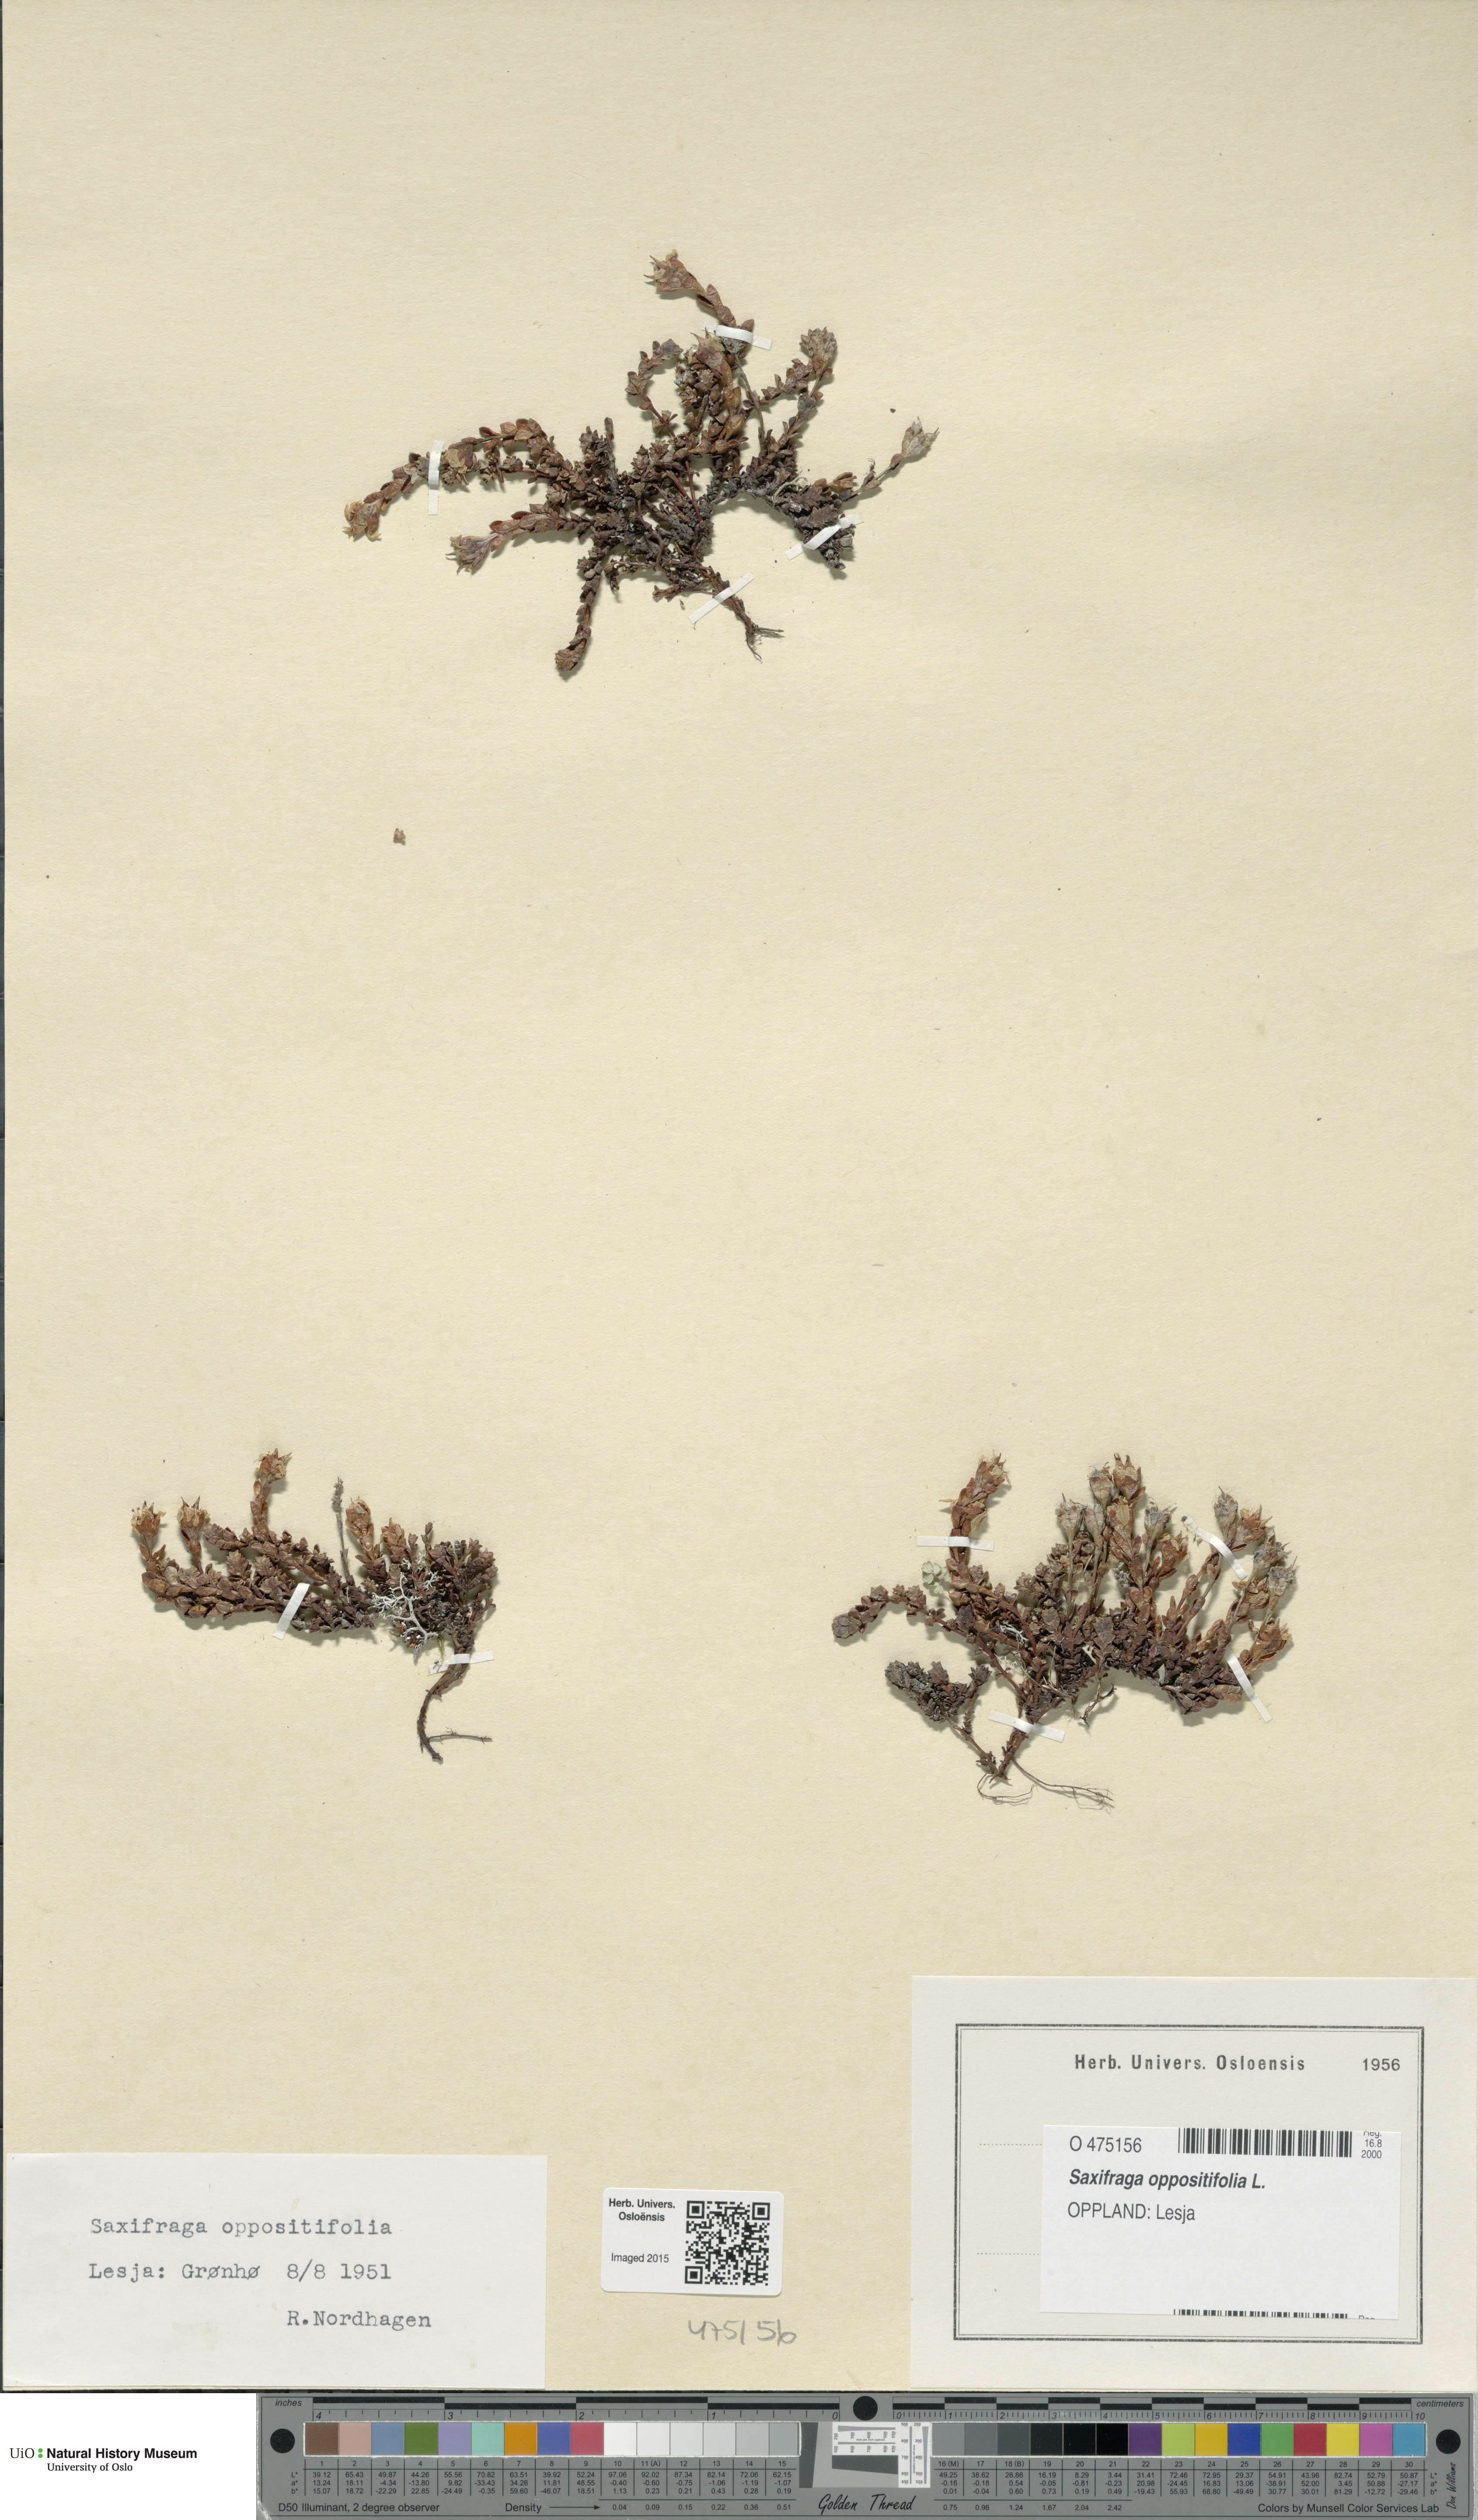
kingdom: Plantae
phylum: Tracheophyta
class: Magnoliopsida
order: Saxifragales
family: Saxifragaceae
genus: Saxifraga
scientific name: Saxifraga oppositifolia
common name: Purple saxifrage
